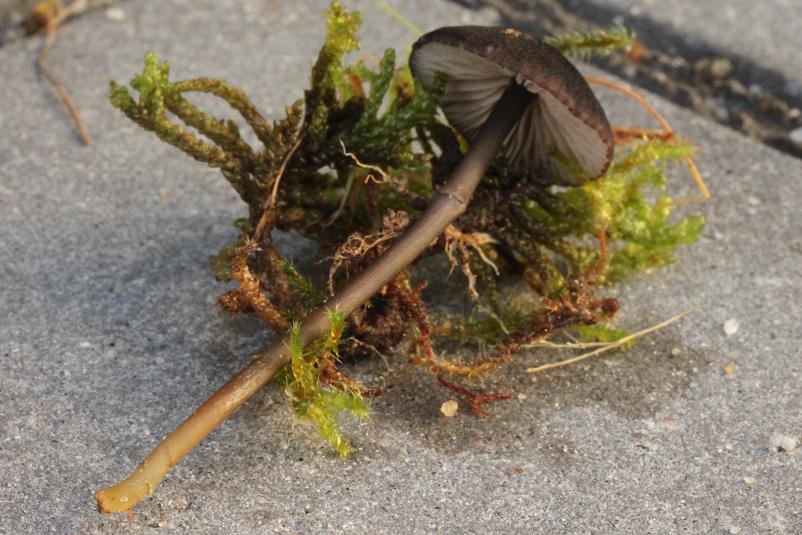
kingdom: Fungi
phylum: Basidiomycota
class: Agaricomycetes
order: Agaricales
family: Entolomataceae
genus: Entoloma
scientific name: Entoloma asprellum
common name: ru rødblad
